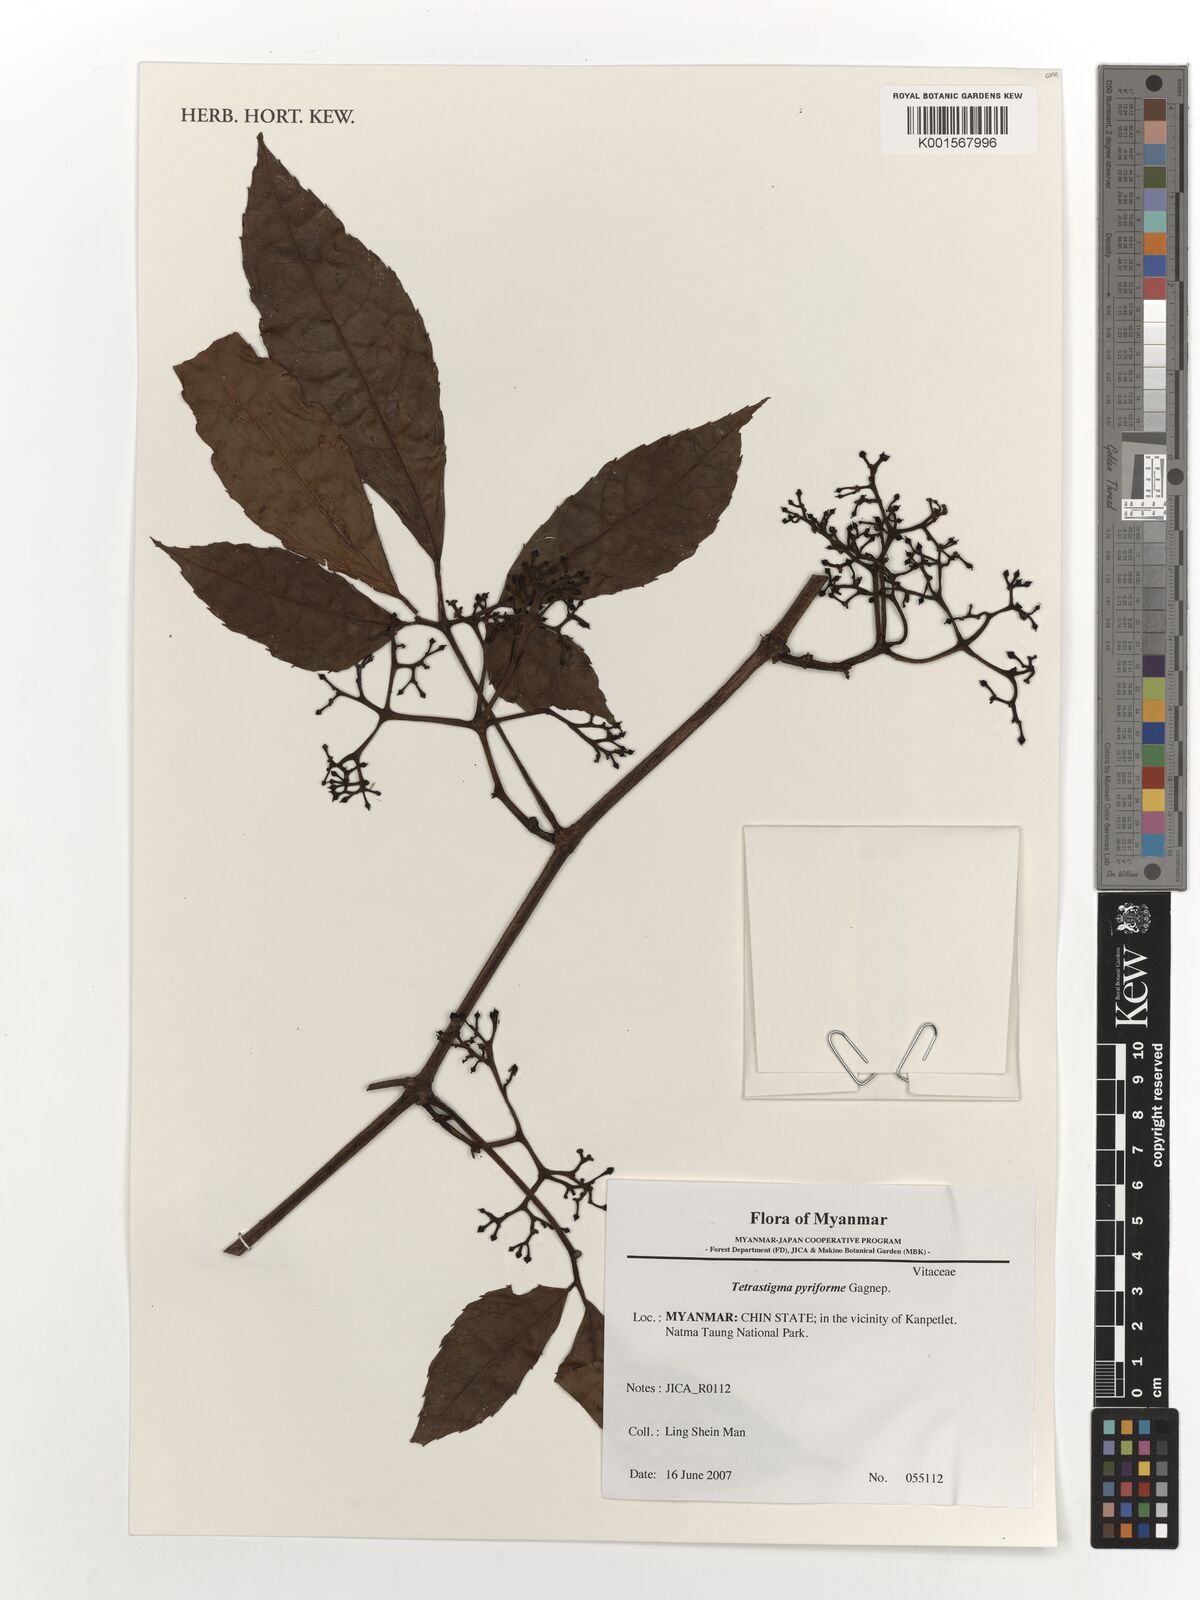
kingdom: Plantae
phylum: Tracheophyta
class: Magnoliopsida
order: Vitales
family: Vitaceae
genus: Tetrastigma
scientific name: Tetrastigma pyriforme
